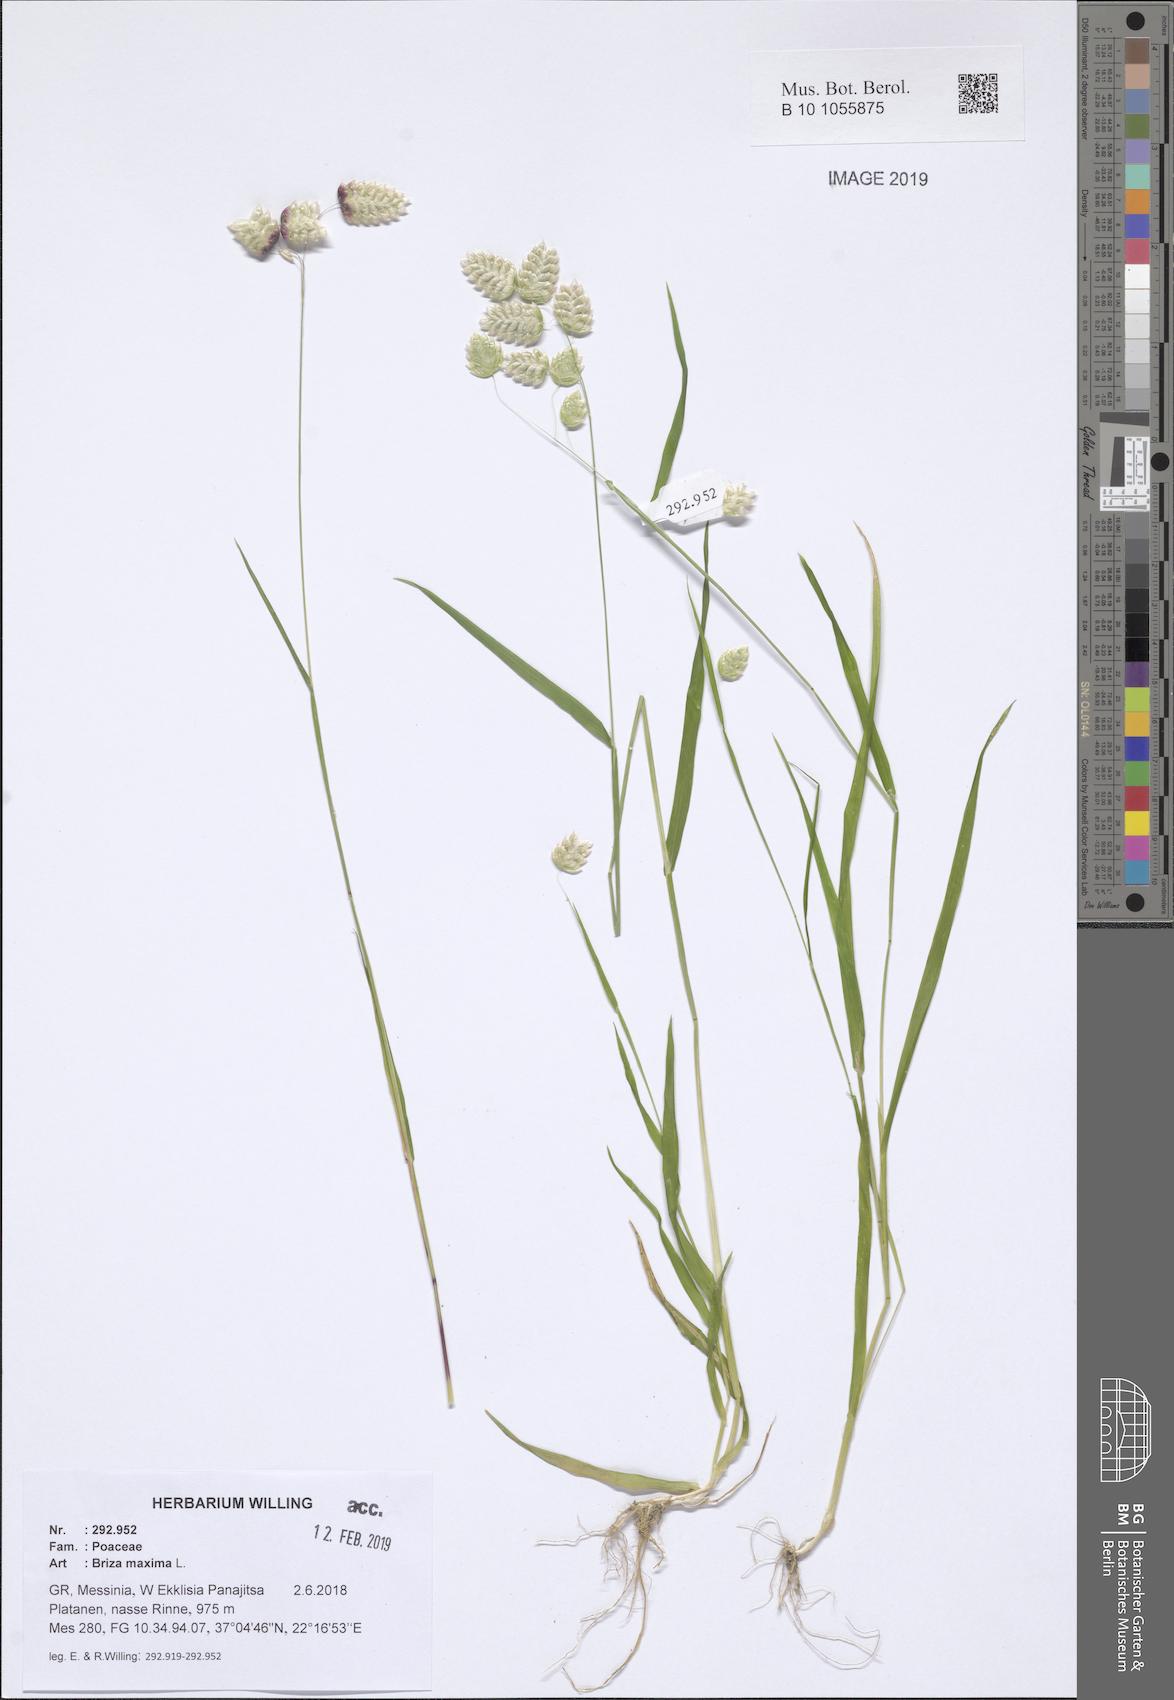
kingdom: Plantae
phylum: Tracheophyta
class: Liliopsida
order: Poales
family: Poaceae
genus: Briza
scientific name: Briza maxima
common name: Big quakinggrass
